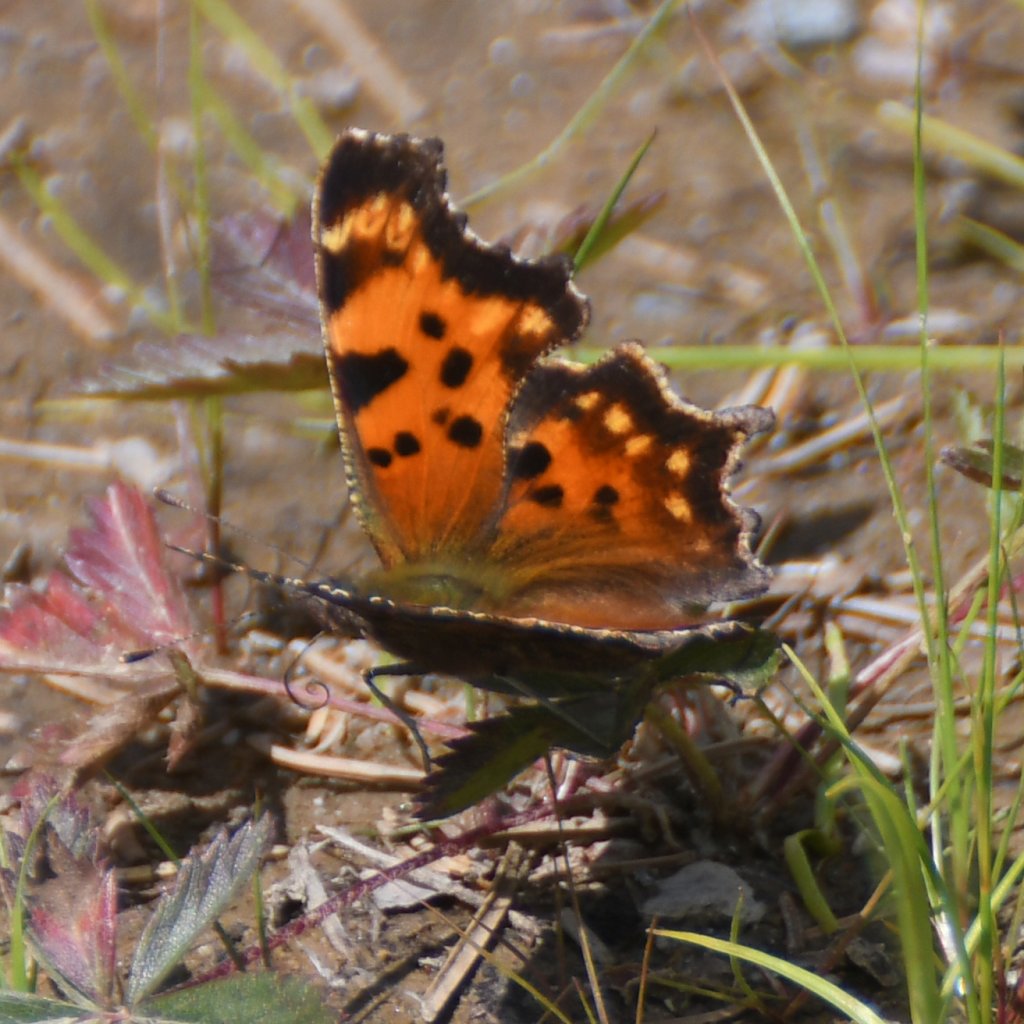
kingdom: Animalia
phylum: Arthropoda
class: Insecta
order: Lepidoptera
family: Nymphalidae
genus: Polygonia
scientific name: Polygonia faunus
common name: Green Comma
